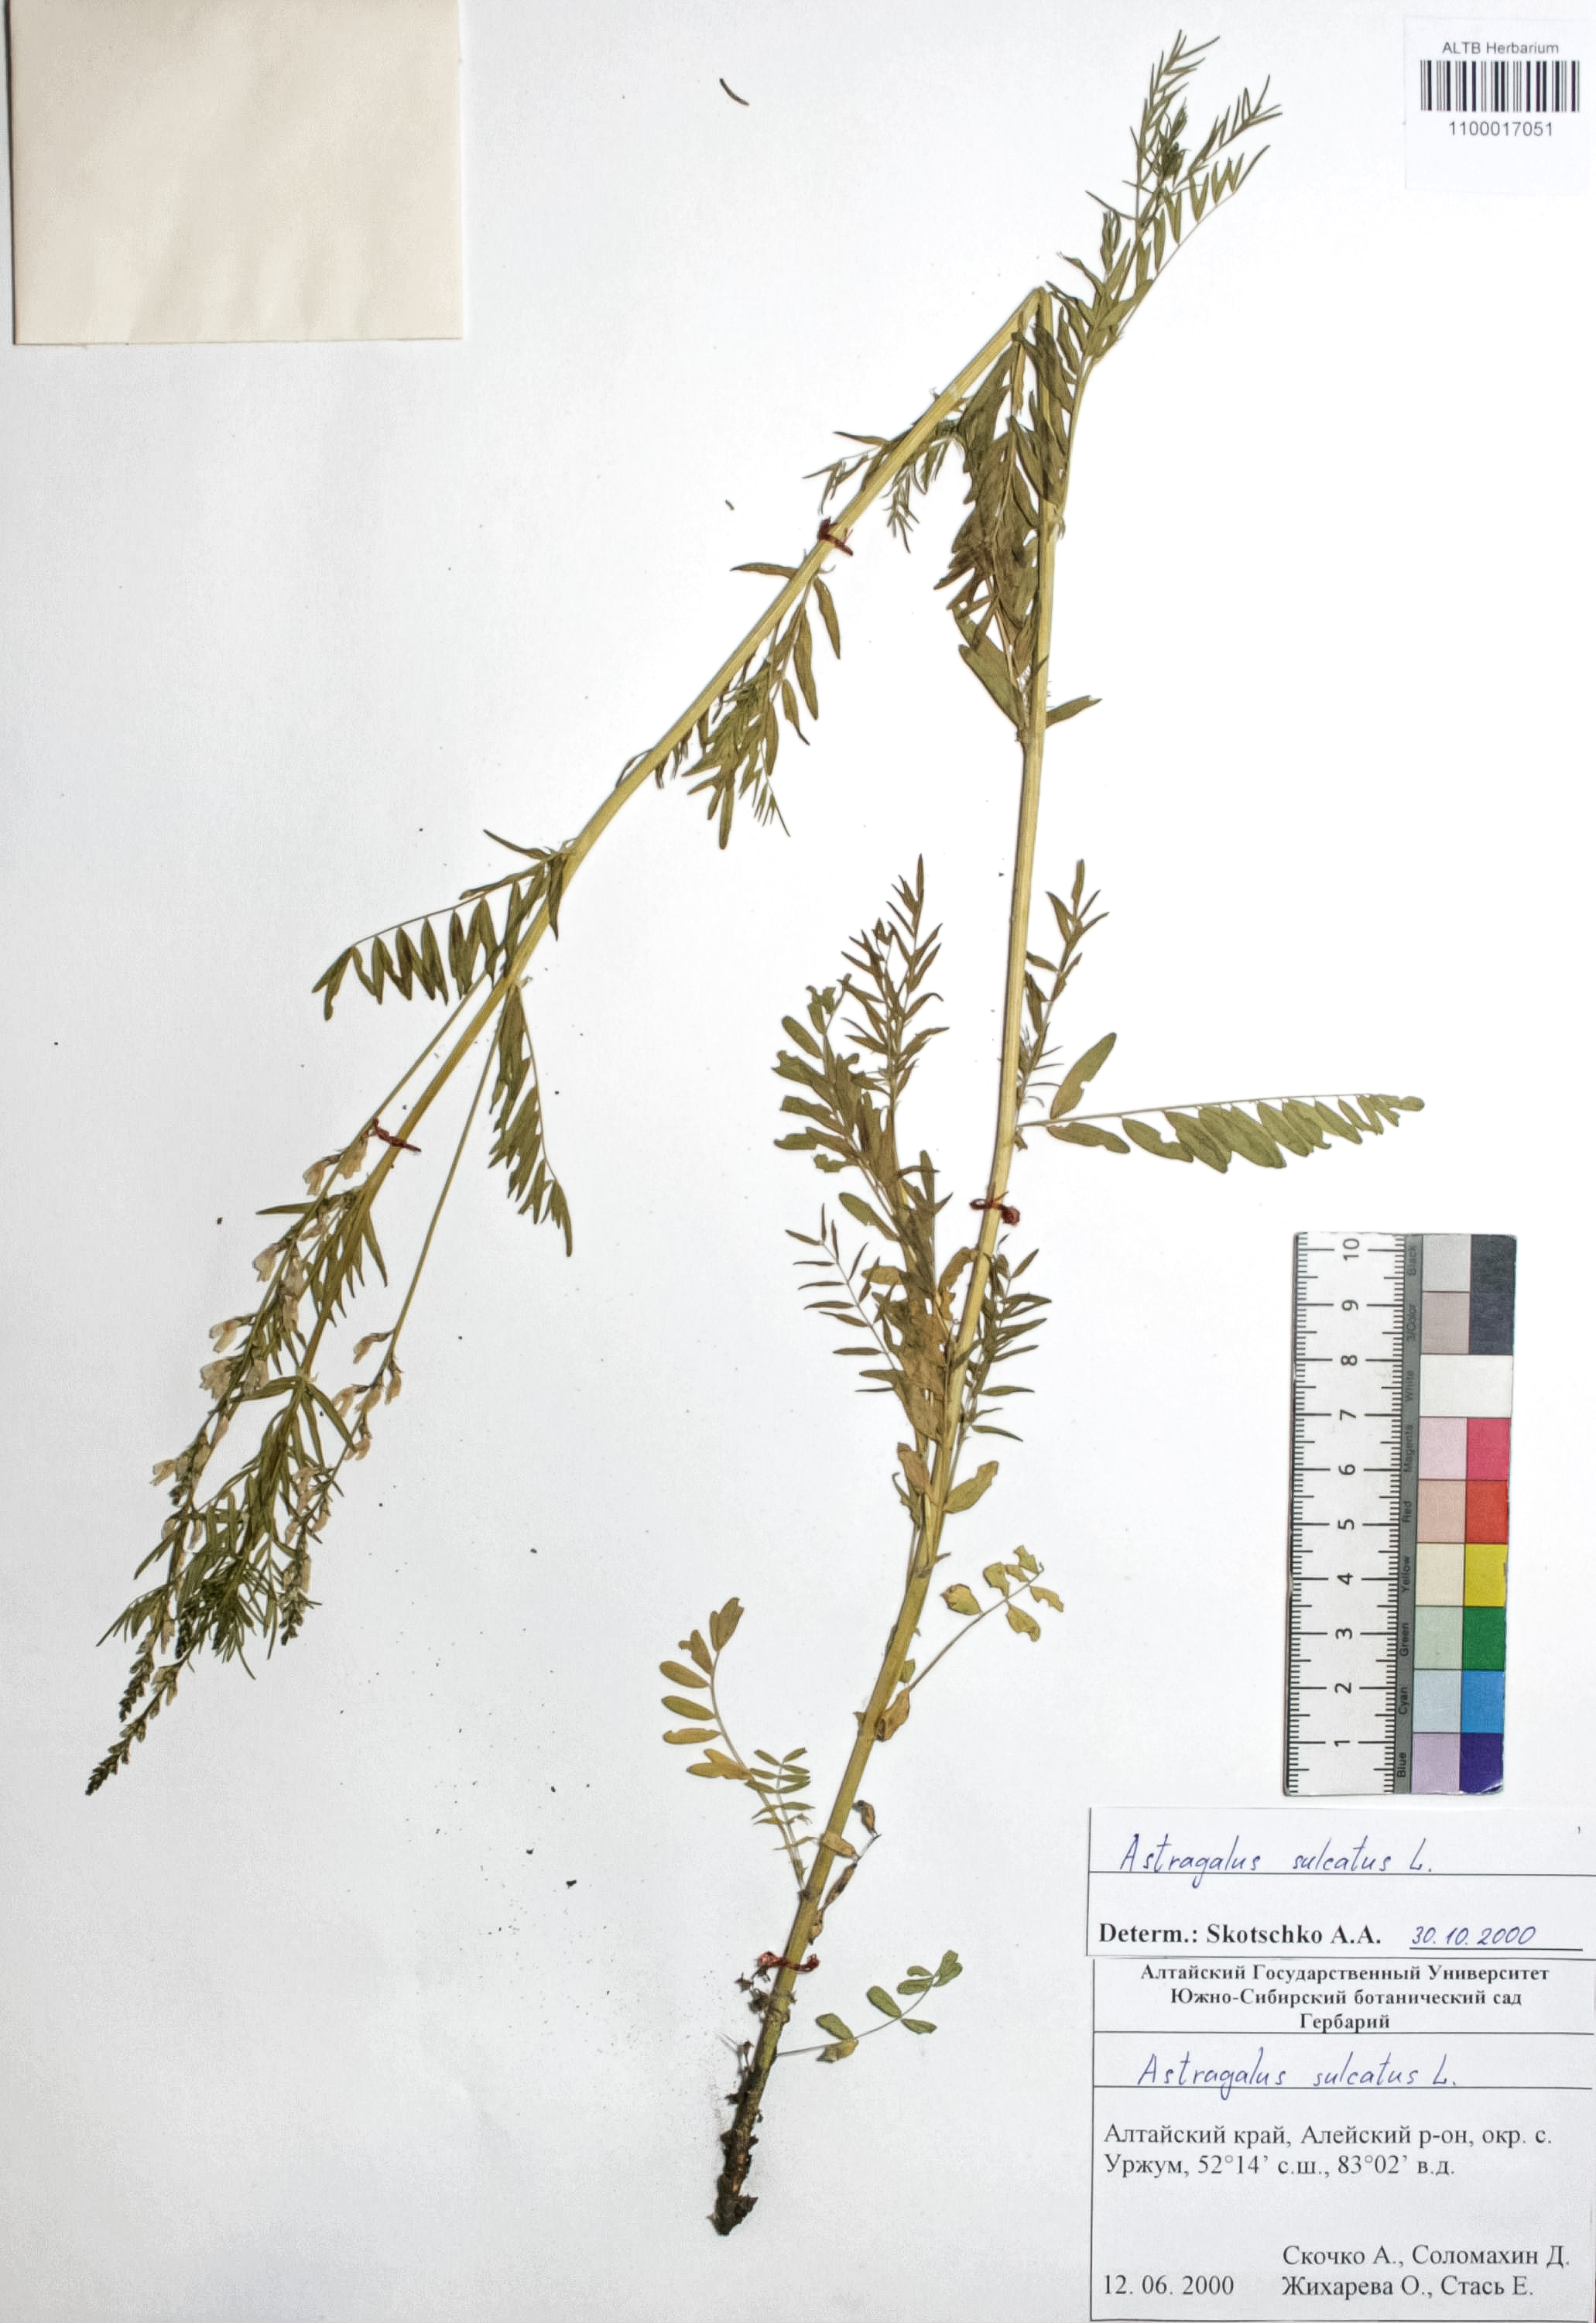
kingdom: Plantae
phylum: Tracheophyta
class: Magnoliopsida
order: Fabales
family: Fabaceae
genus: Astragalus
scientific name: Astragalus sulcatus
